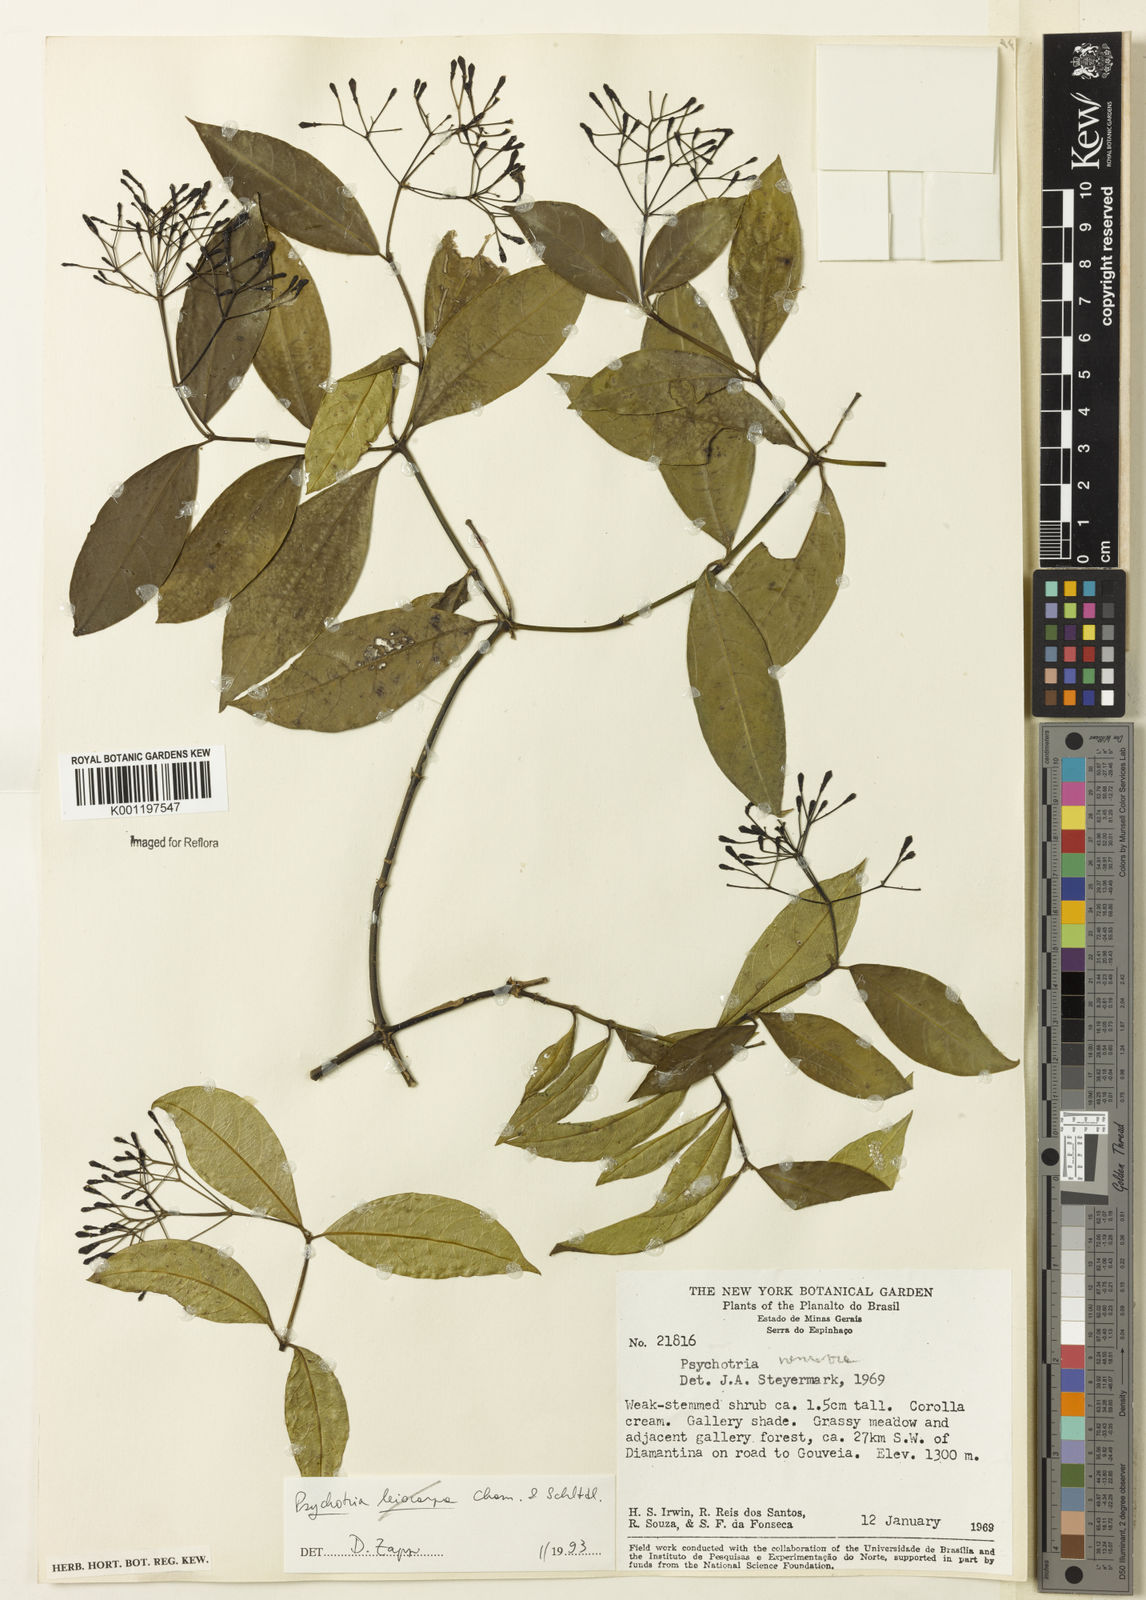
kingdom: Plantae
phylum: Tracheophyta
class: Magnoliopsida
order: Gentianales
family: Rubiaceae
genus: Psychotria
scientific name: Psychotria nemorosa
